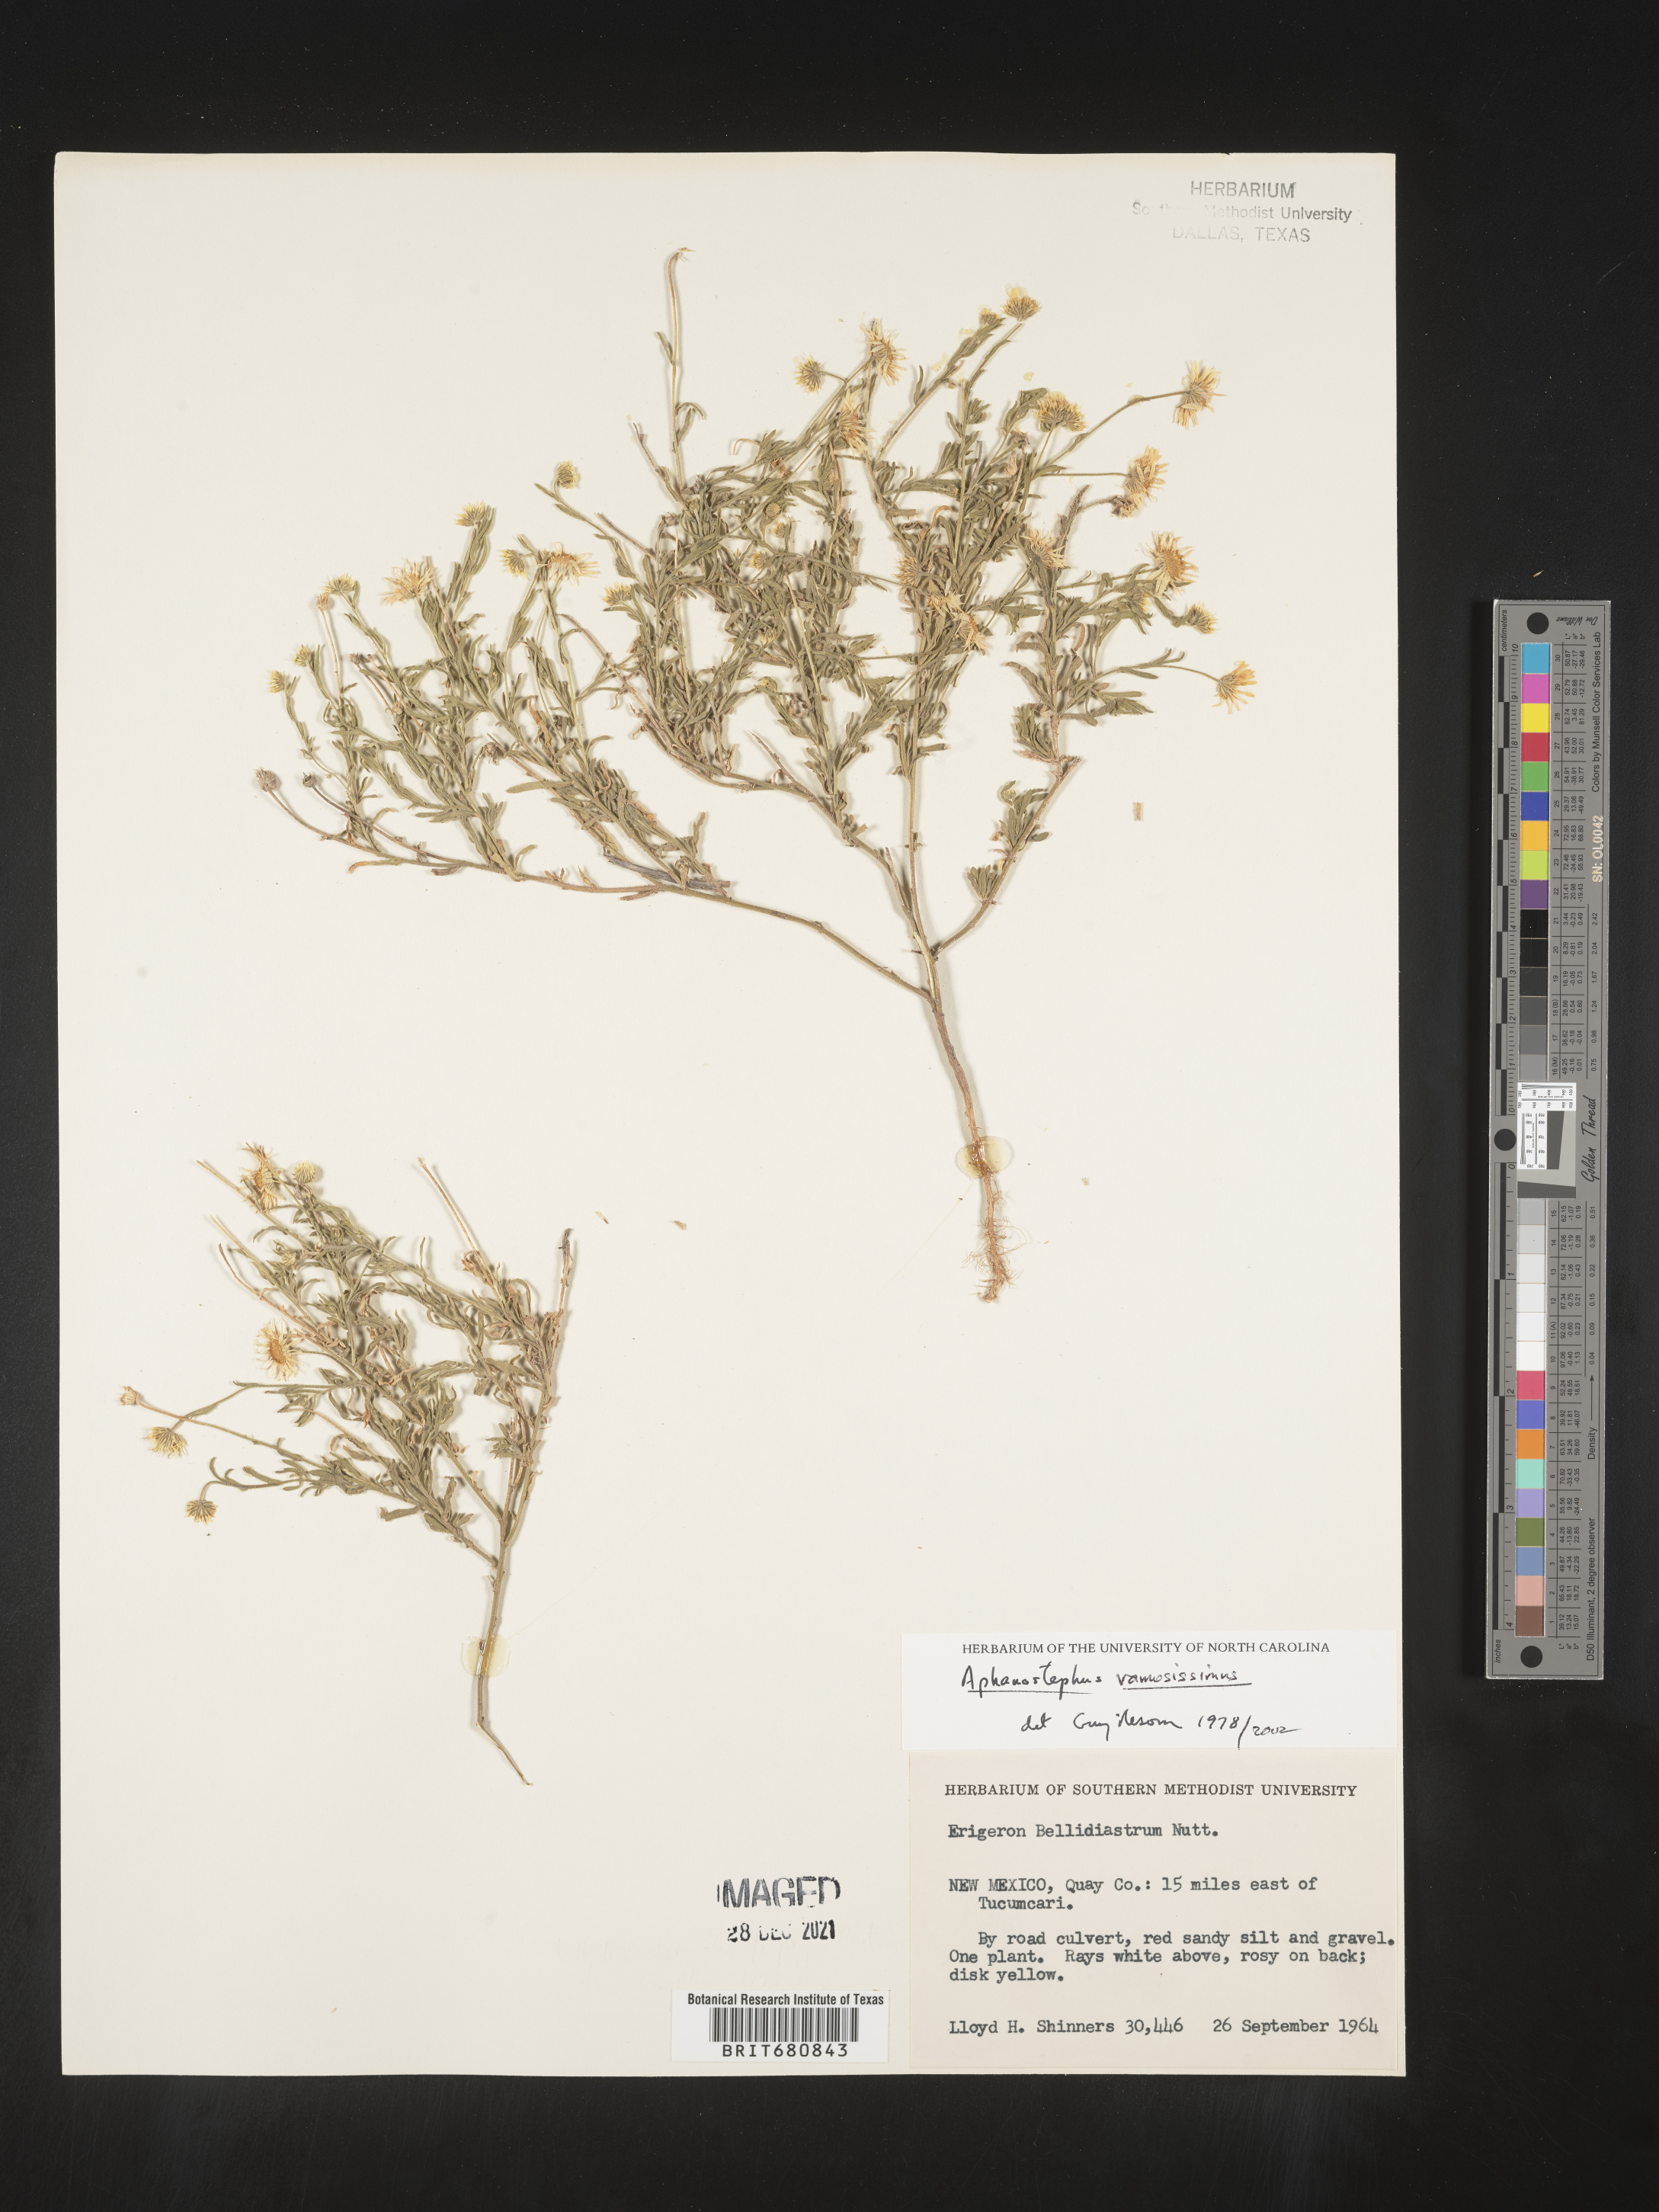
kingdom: Plantae
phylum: Tracheophyta
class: Magnoliopsida
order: Asterales
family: Asteraceae
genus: Aphanostephus
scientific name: Aphanostephus ramosissimus
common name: Plains lazy daisy
